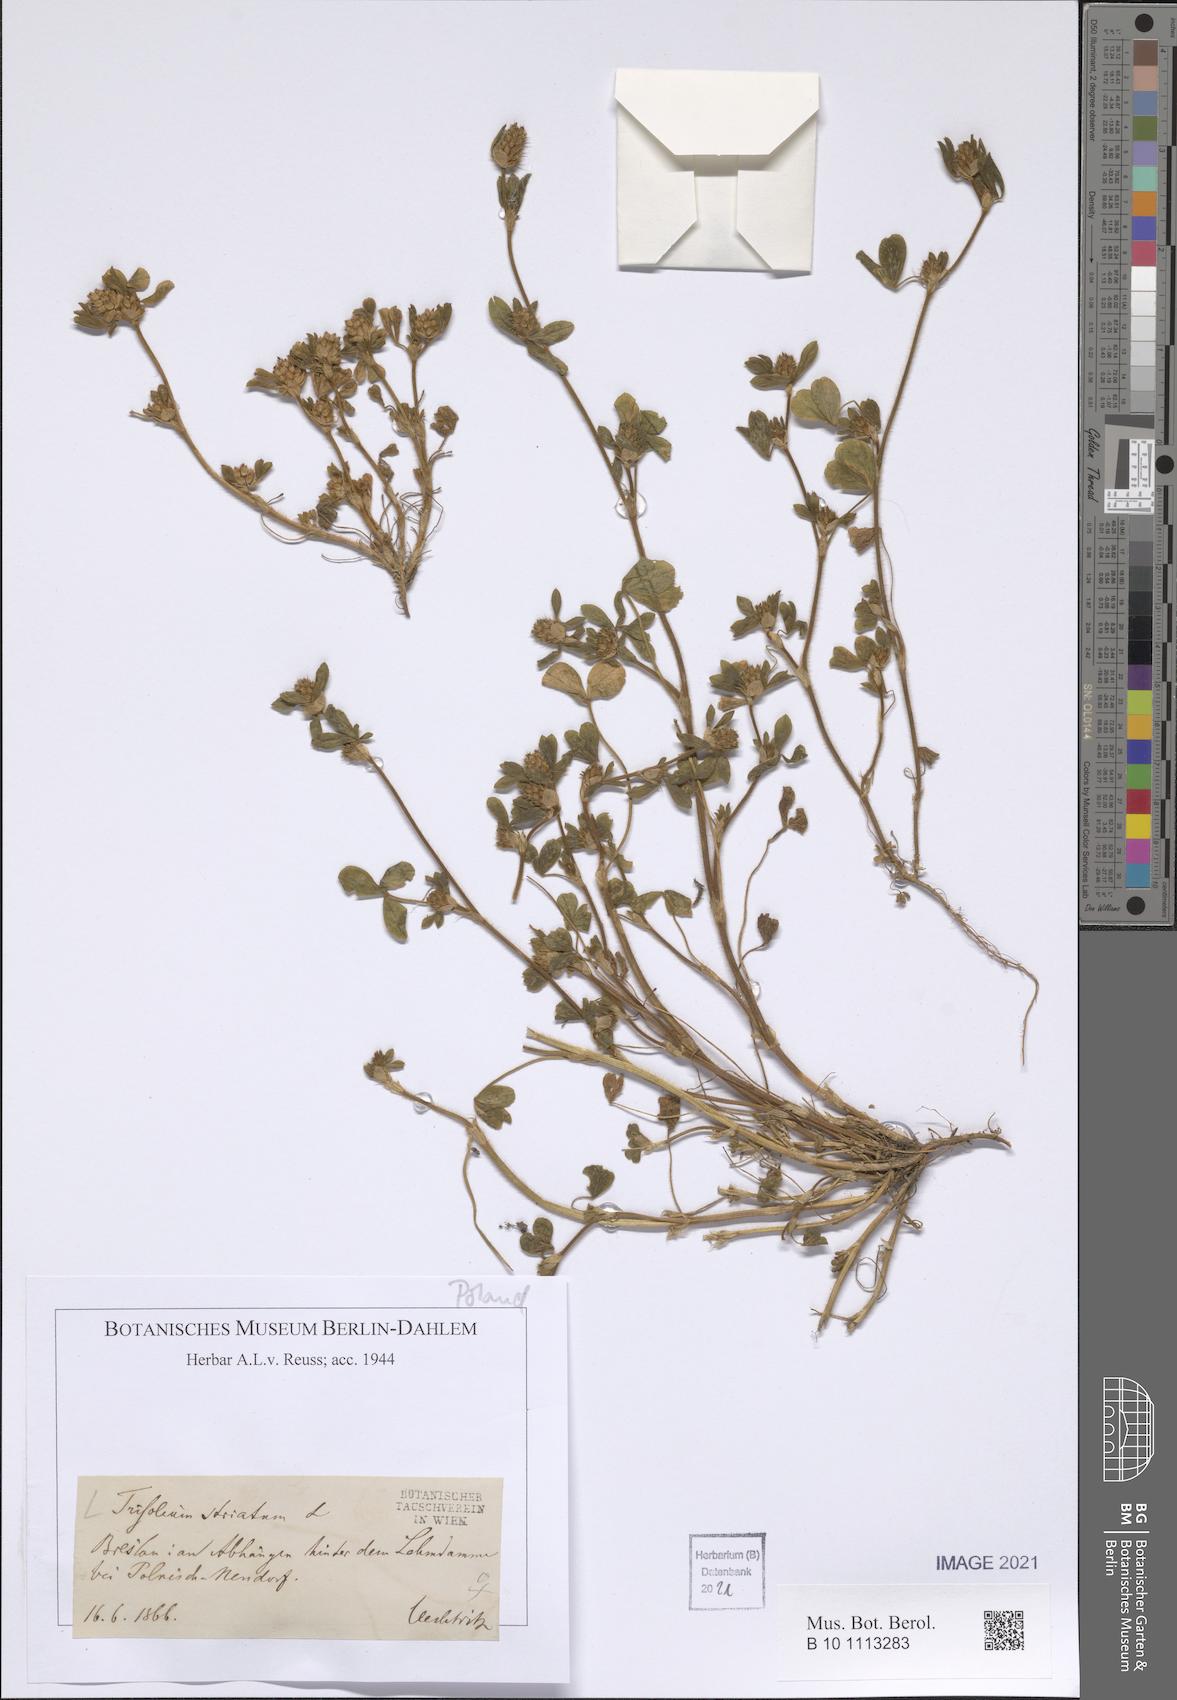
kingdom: Plantae
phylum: Tracheophyta
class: Magnoliopsida
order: Fabales
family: Fabaceae
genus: Trifolium
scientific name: Trifolium striatum
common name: Knotted clover
